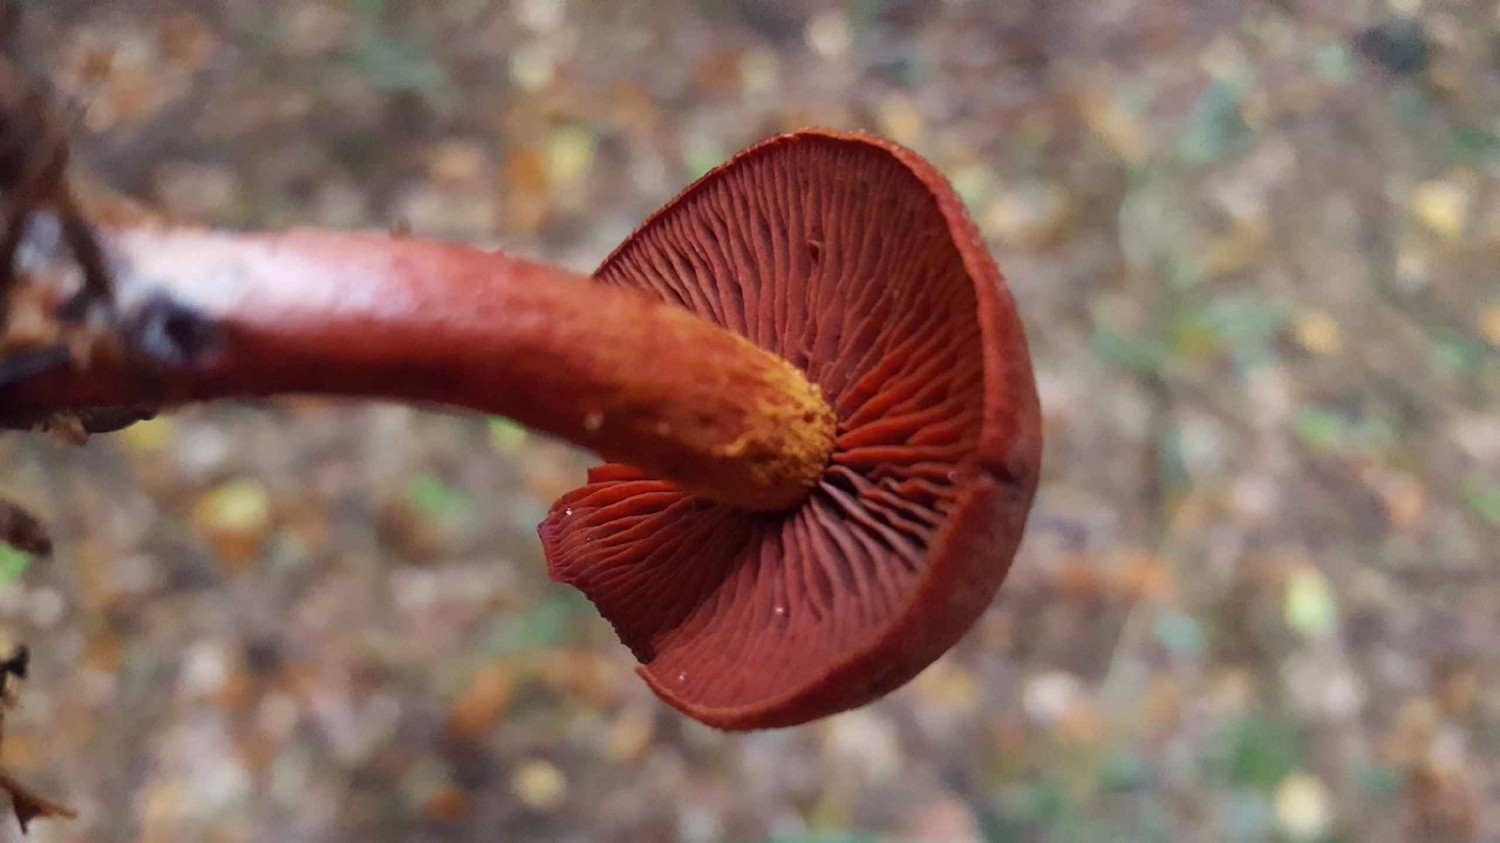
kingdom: Fungi
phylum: Basidiomycota
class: Agaricomycetes
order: Agaricales
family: Cortinariaceae
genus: Cortinarius
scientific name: Cortinarius sanguineus
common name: Bloodred webcap
